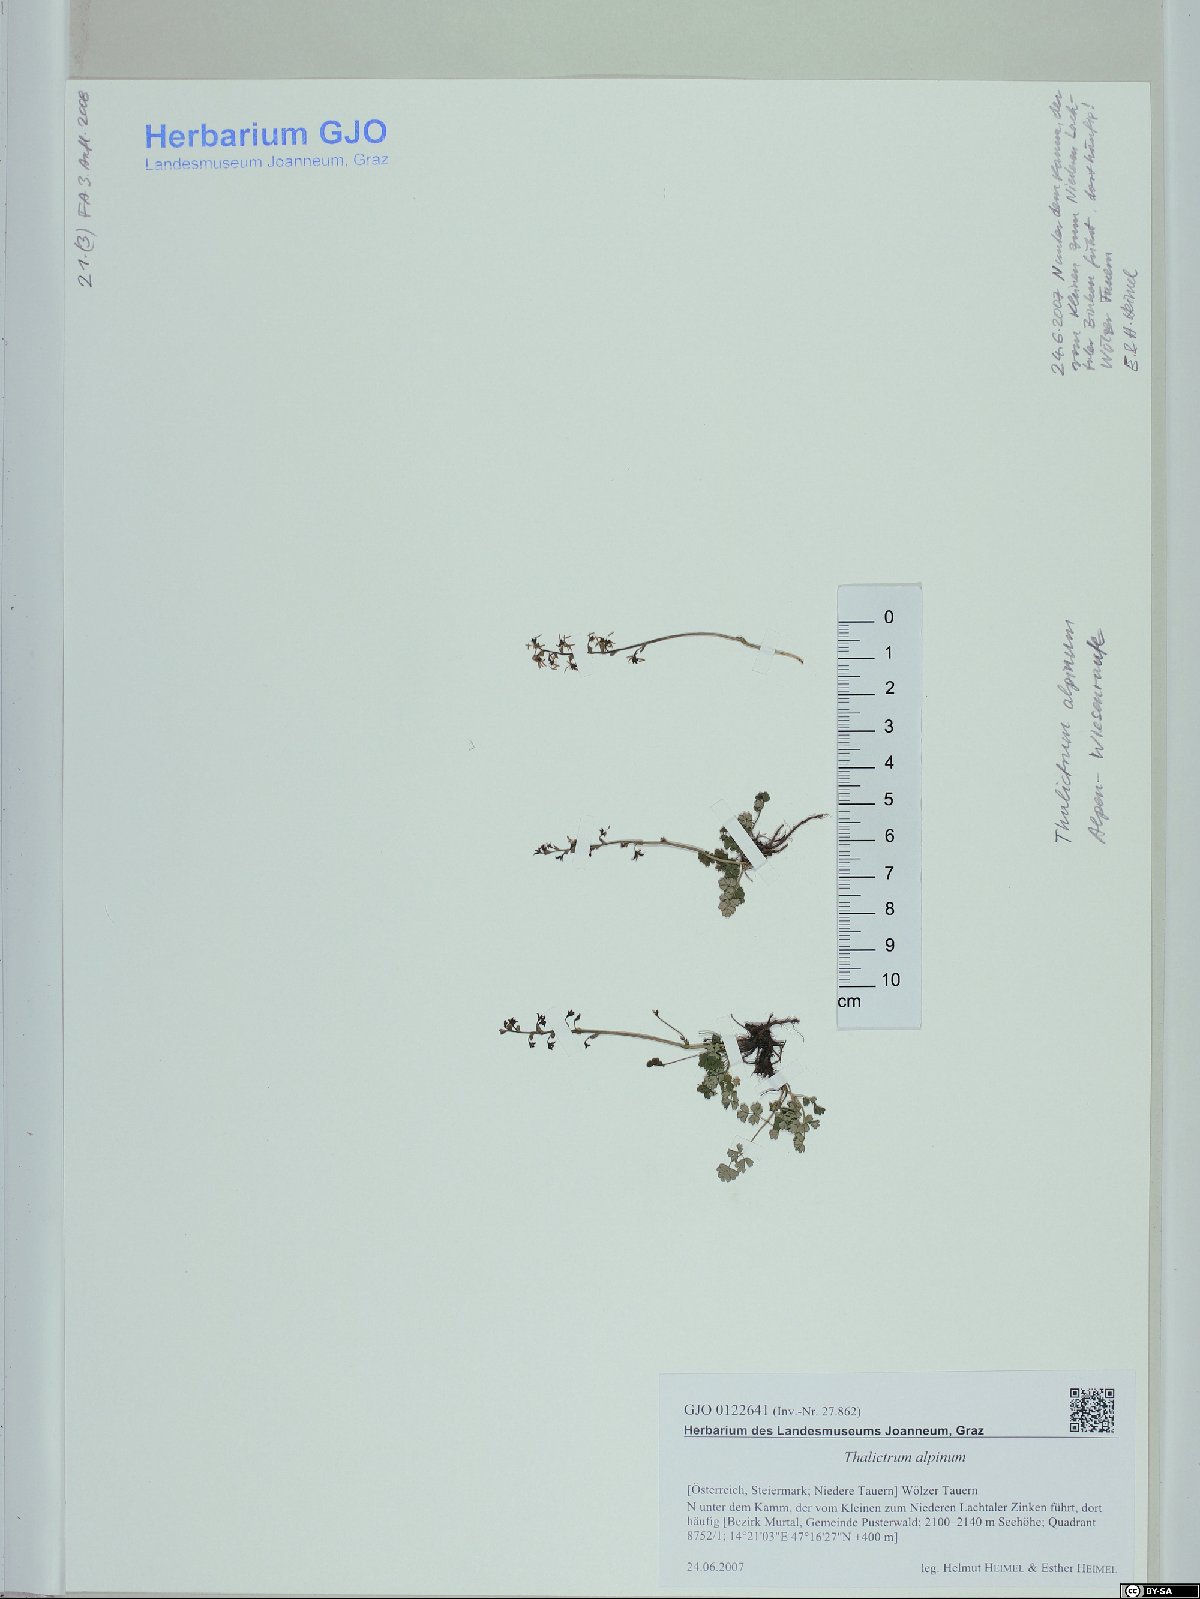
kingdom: Plantae
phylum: Tracheophyta
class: Magnoliopsida
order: Ranunculales
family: Ranunculaceae
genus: Thalictrum
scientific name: Thalictrum alpinum
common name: Alpine meadow-rue
